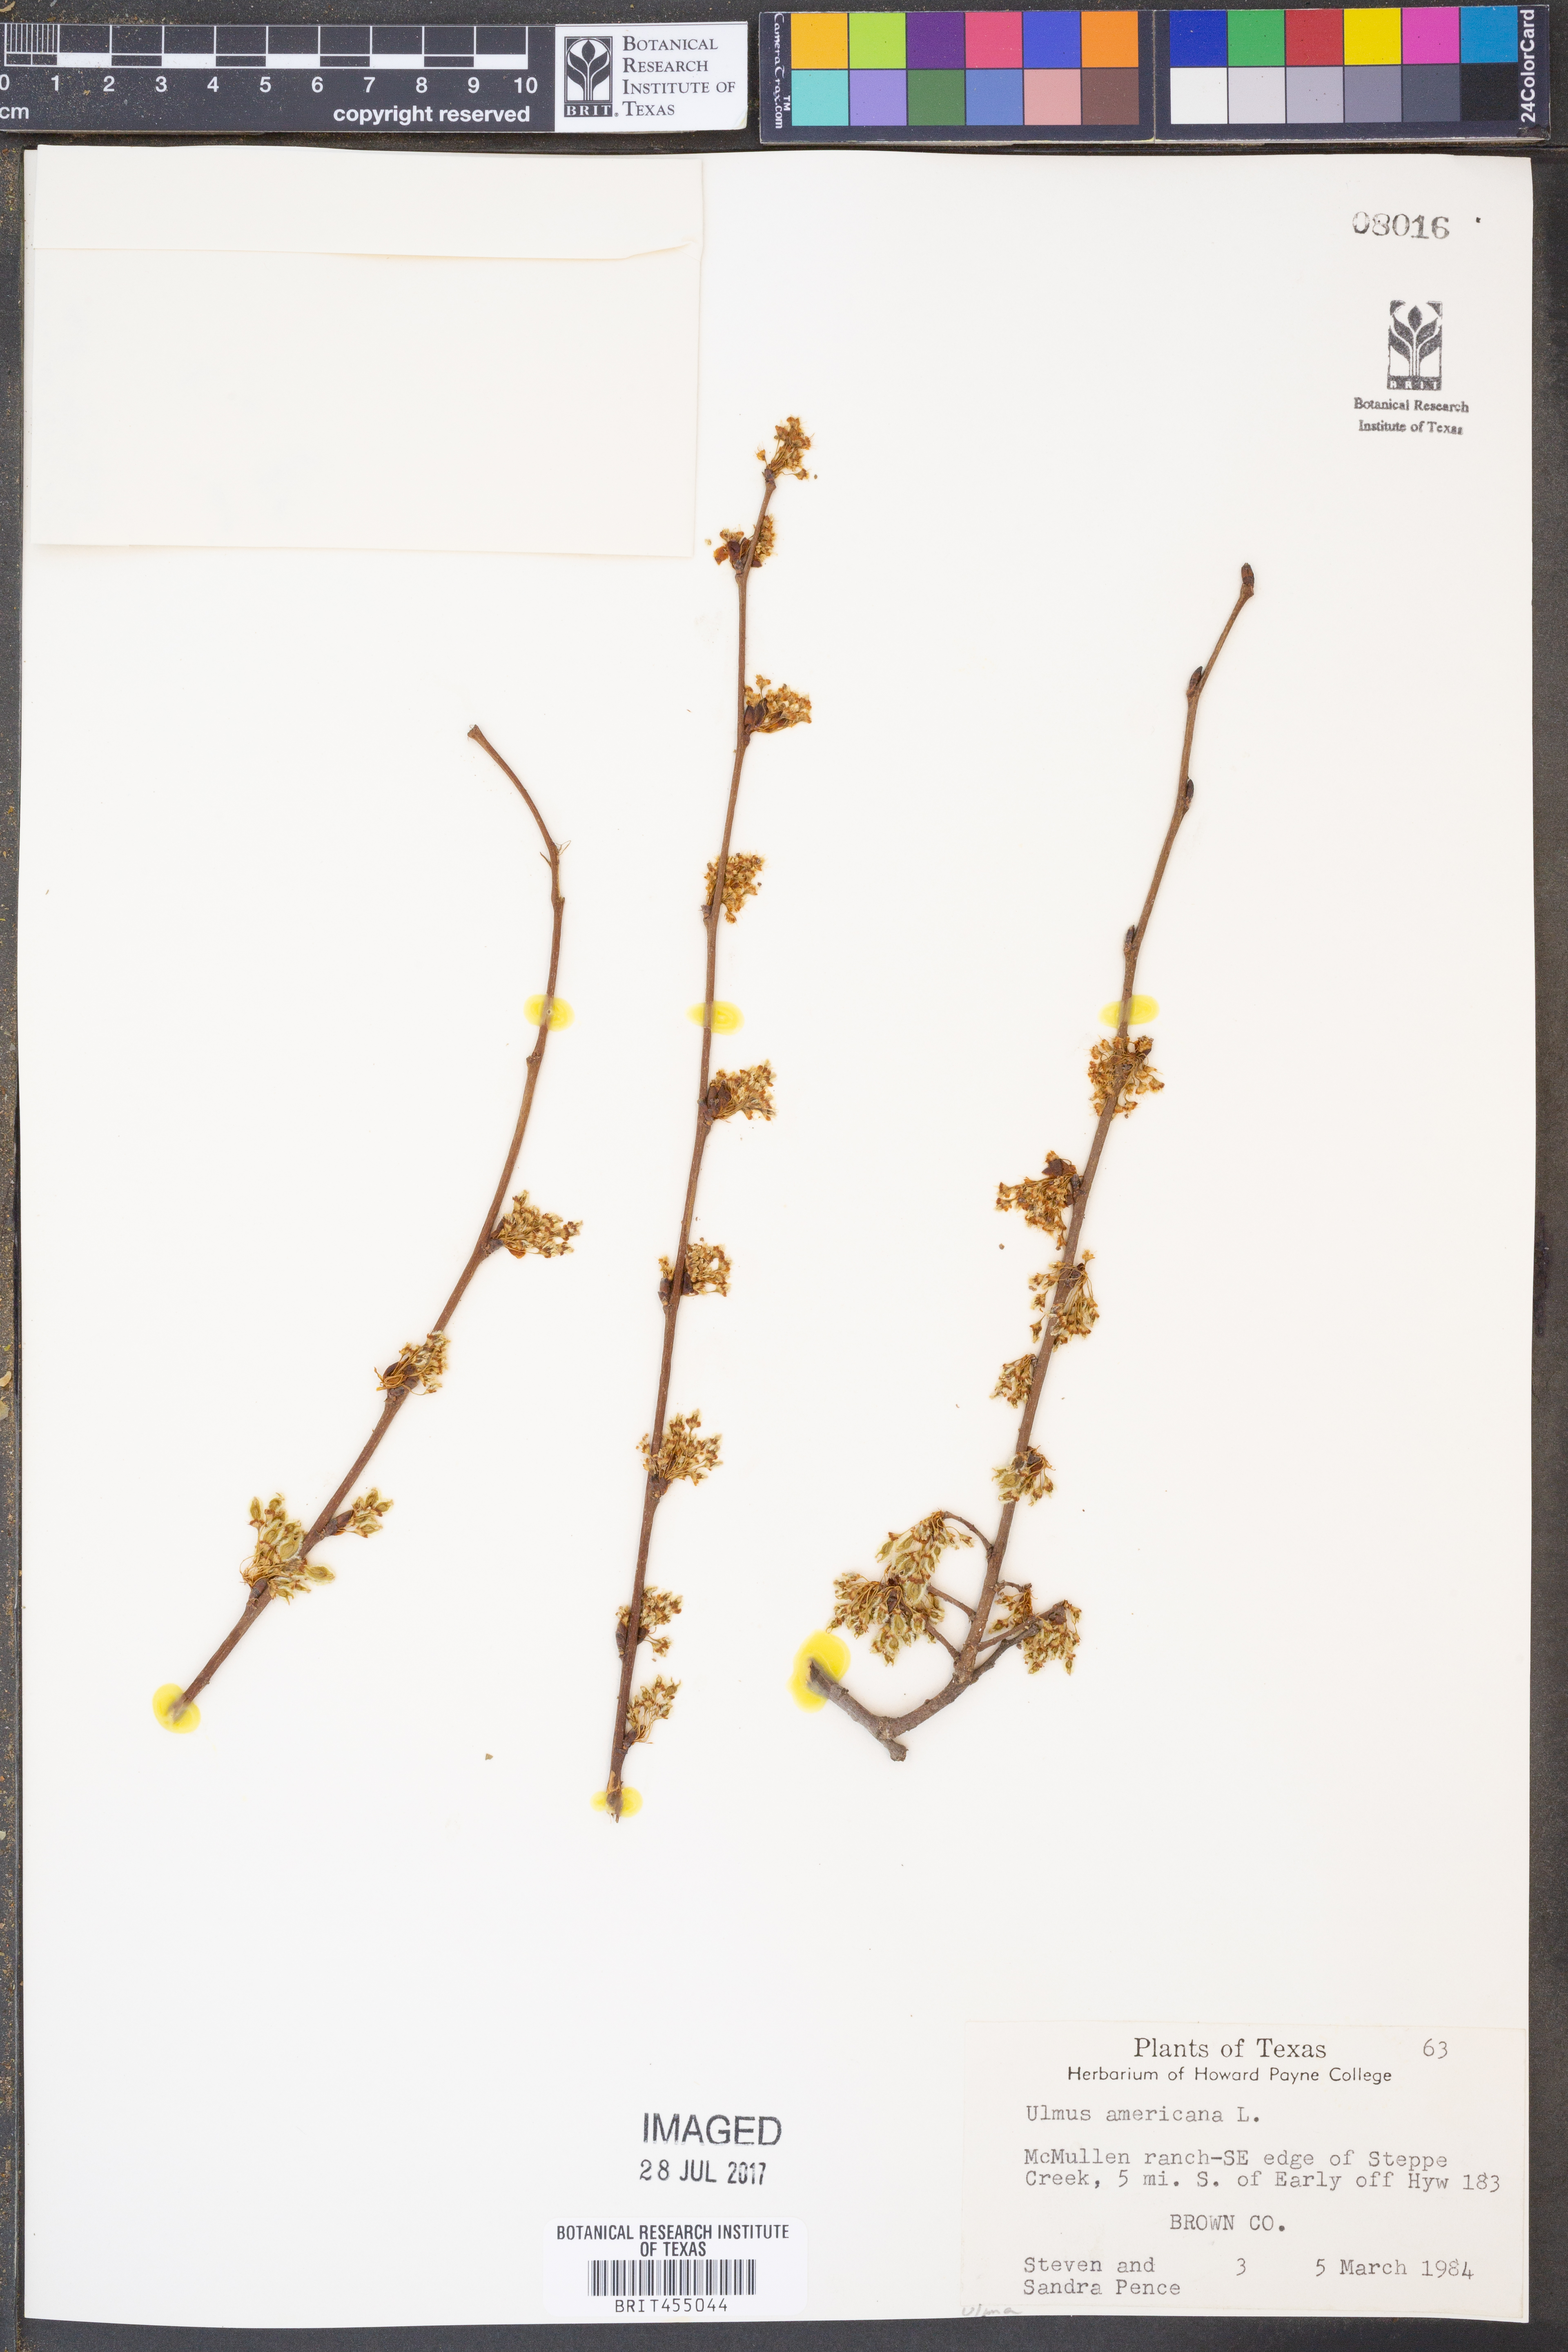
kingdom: Plantae
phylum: Tracheophyta
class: Magnoliopsida
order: Rosales
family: Ulmaceae
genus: Ulmus
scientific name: Ulmus americana
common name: American elm
